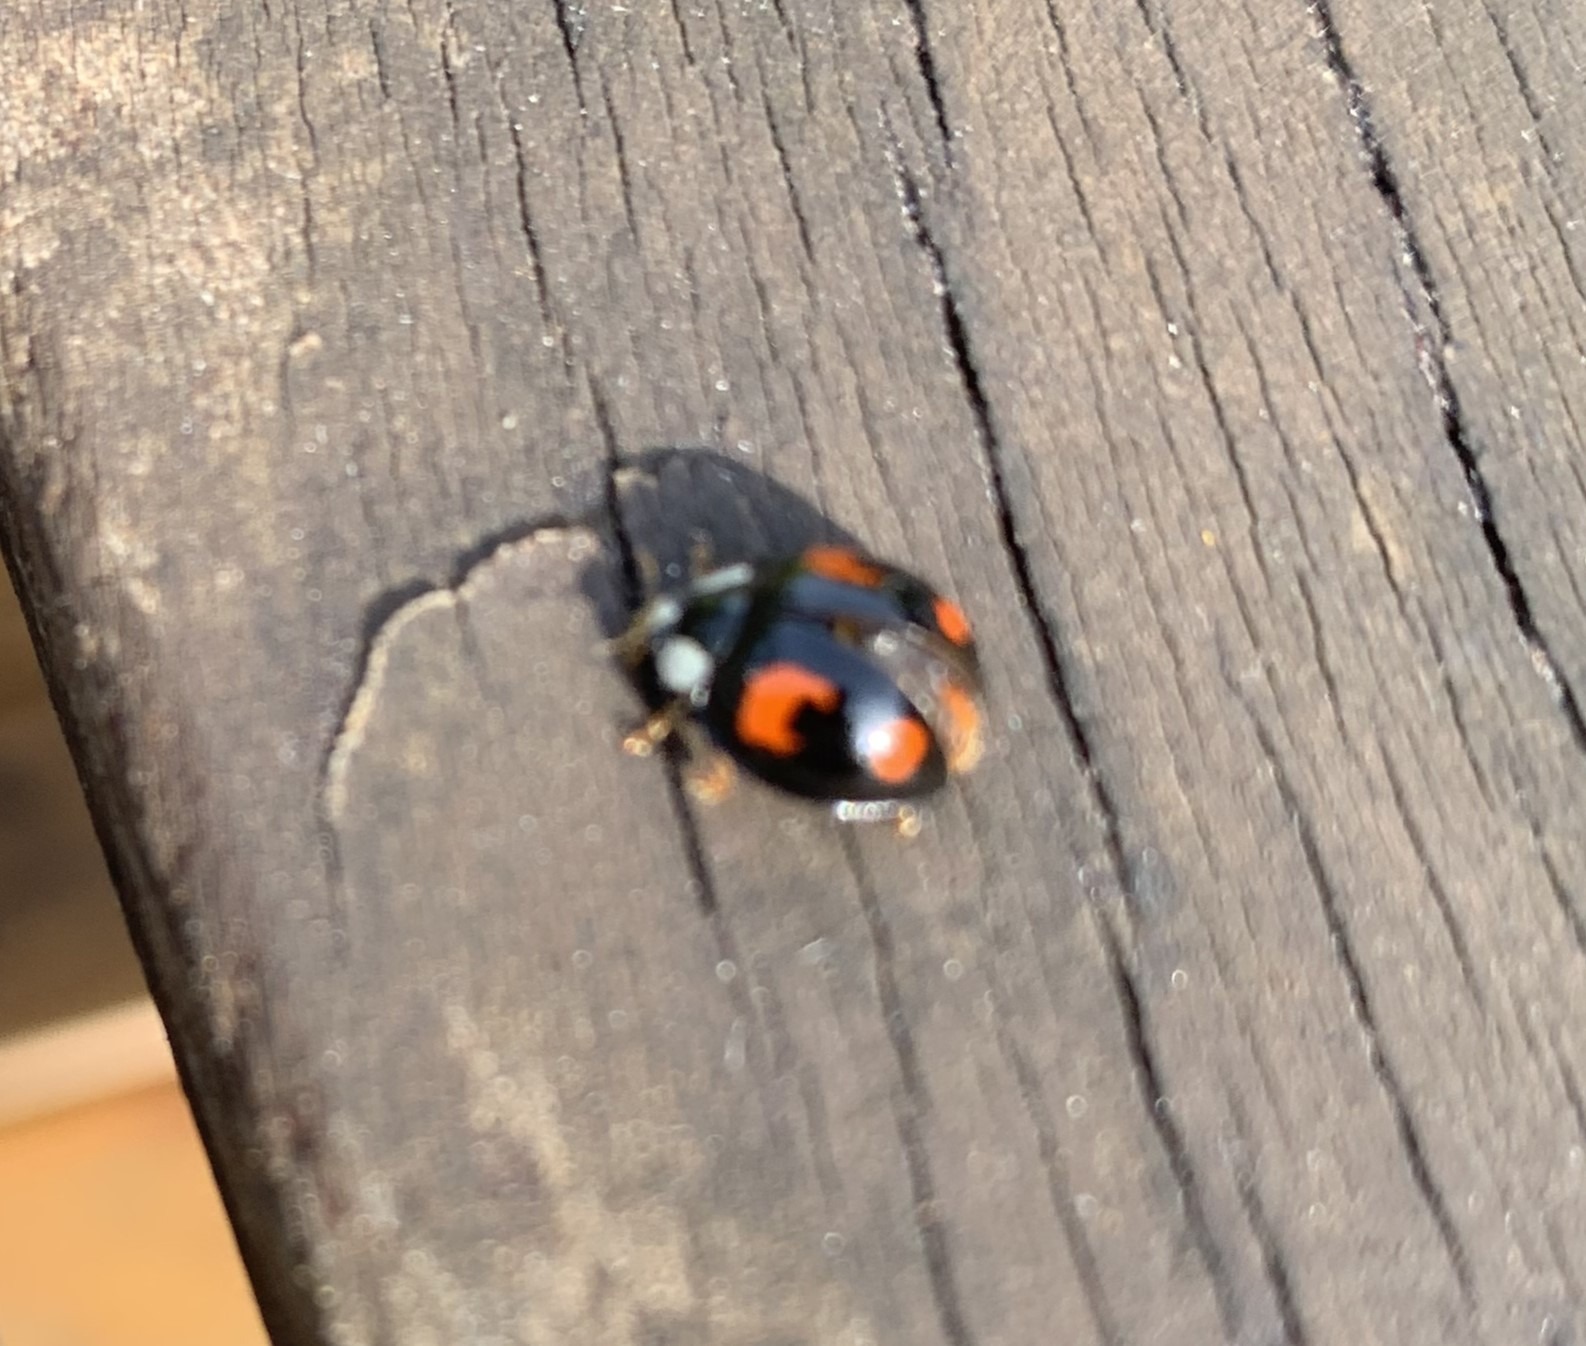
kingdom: Animalia
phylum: Arthropoda
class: Insecta
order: Coleoptera
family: Coccinellidae
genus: Harmonia
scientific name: Harmonia axyridis
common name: Harlekinmariehøne
